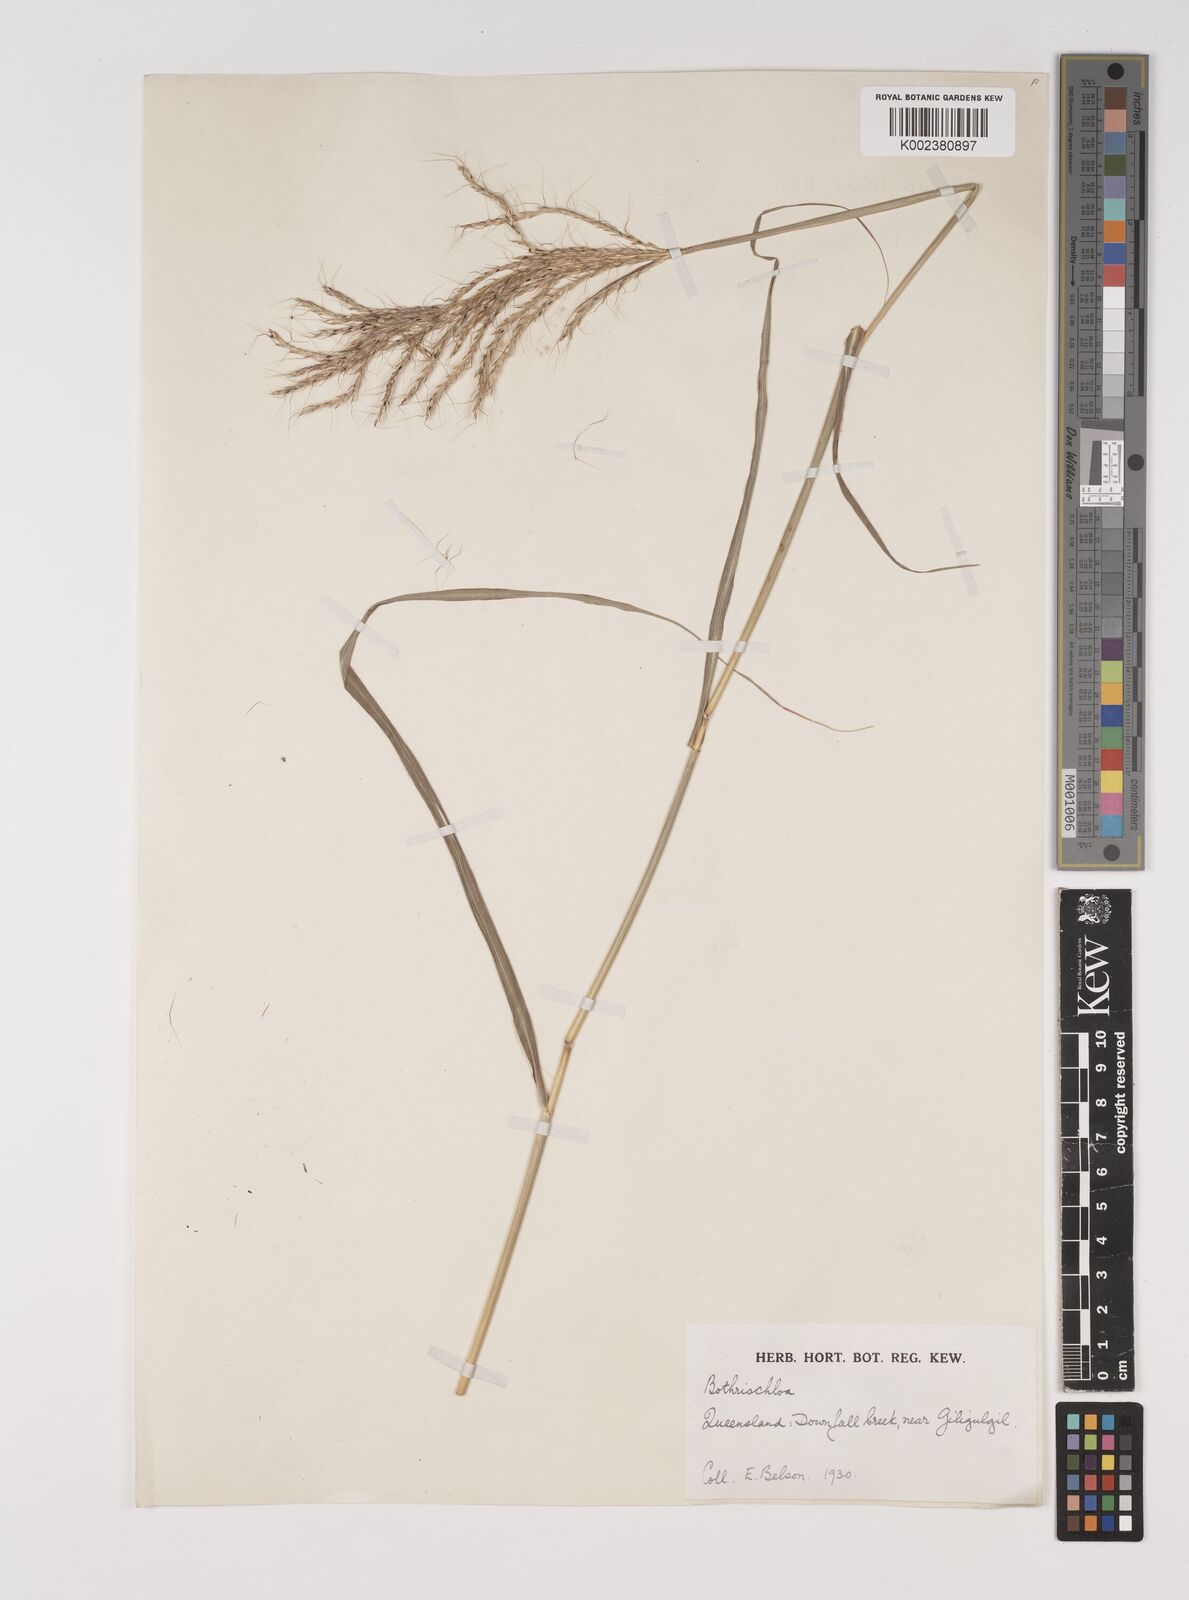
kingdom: Plantae
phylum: Tracheophyta
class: Liliopsida
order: Poales
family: Poaceae
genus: Bothriochloa
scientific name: Bothriochloa bladhii
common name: Caucasian bluestem
